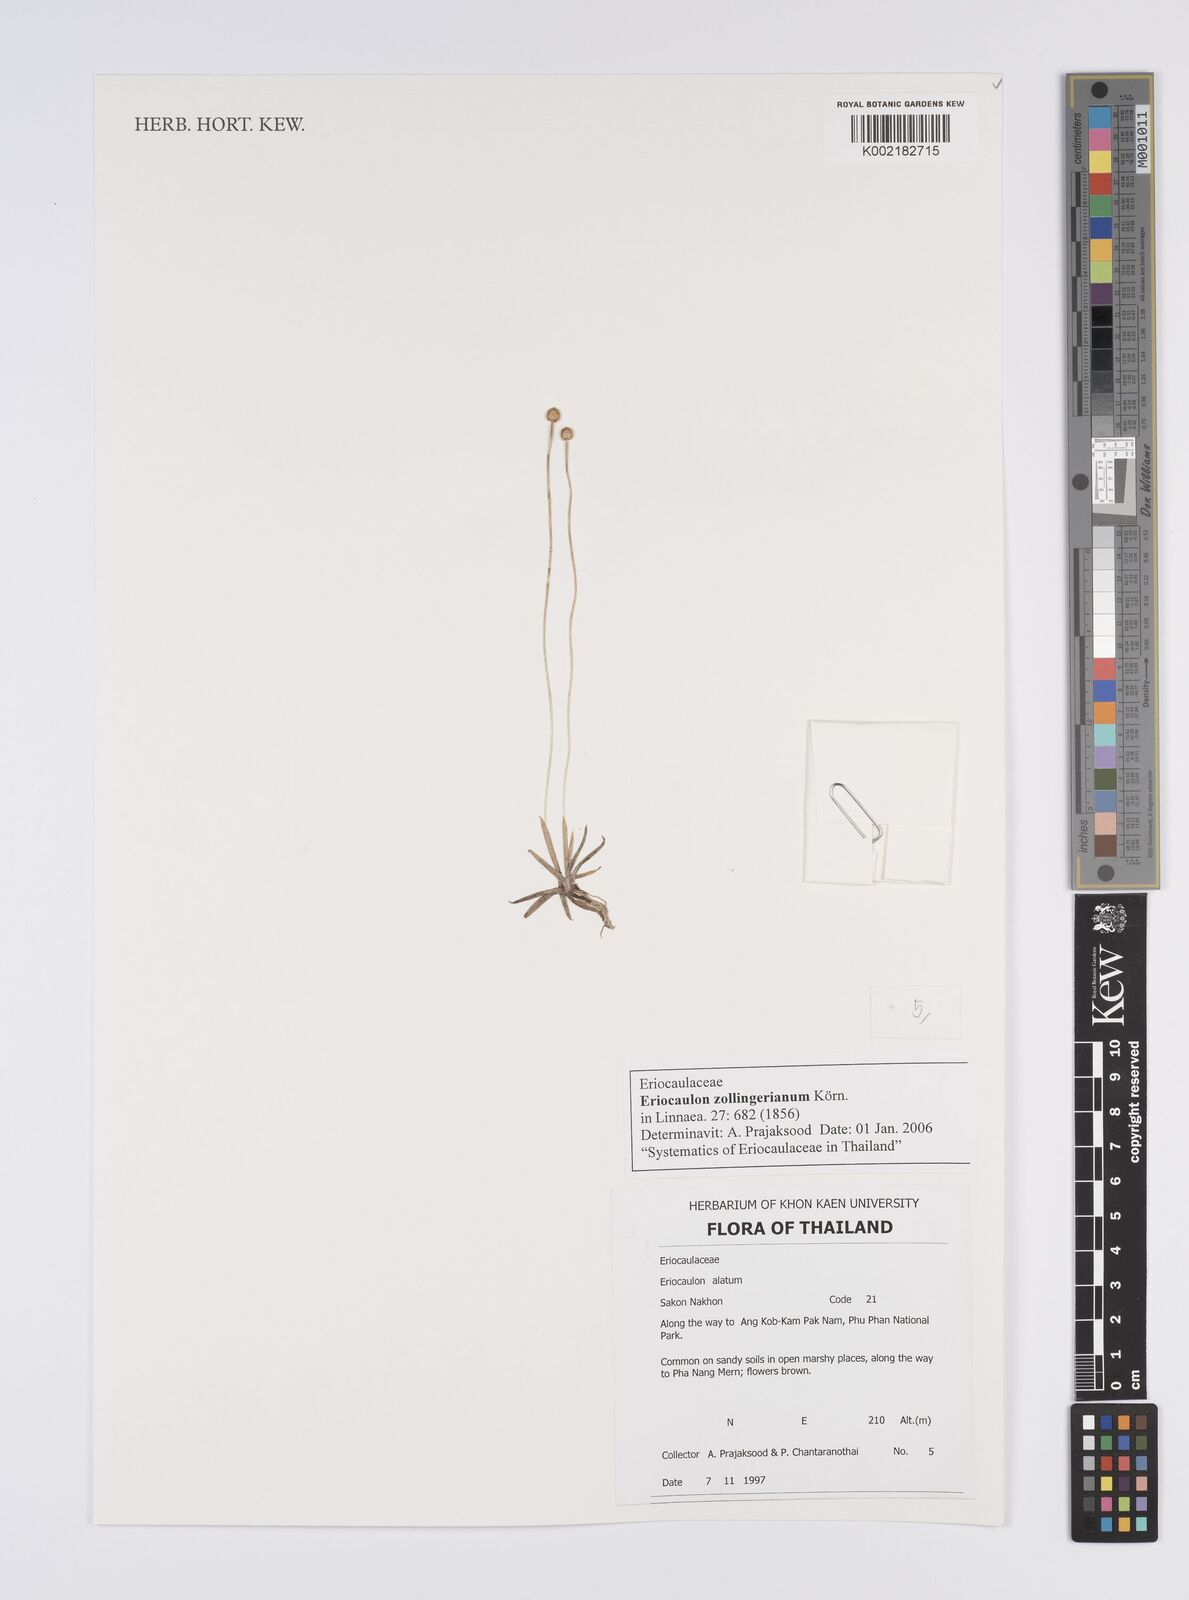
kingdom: Plantae
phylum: Tracheophyta
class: Liliopsida
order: Poales
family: Eriocaulaceae
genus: Eriocaulon
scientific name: Eriocaulon zollingerianum
